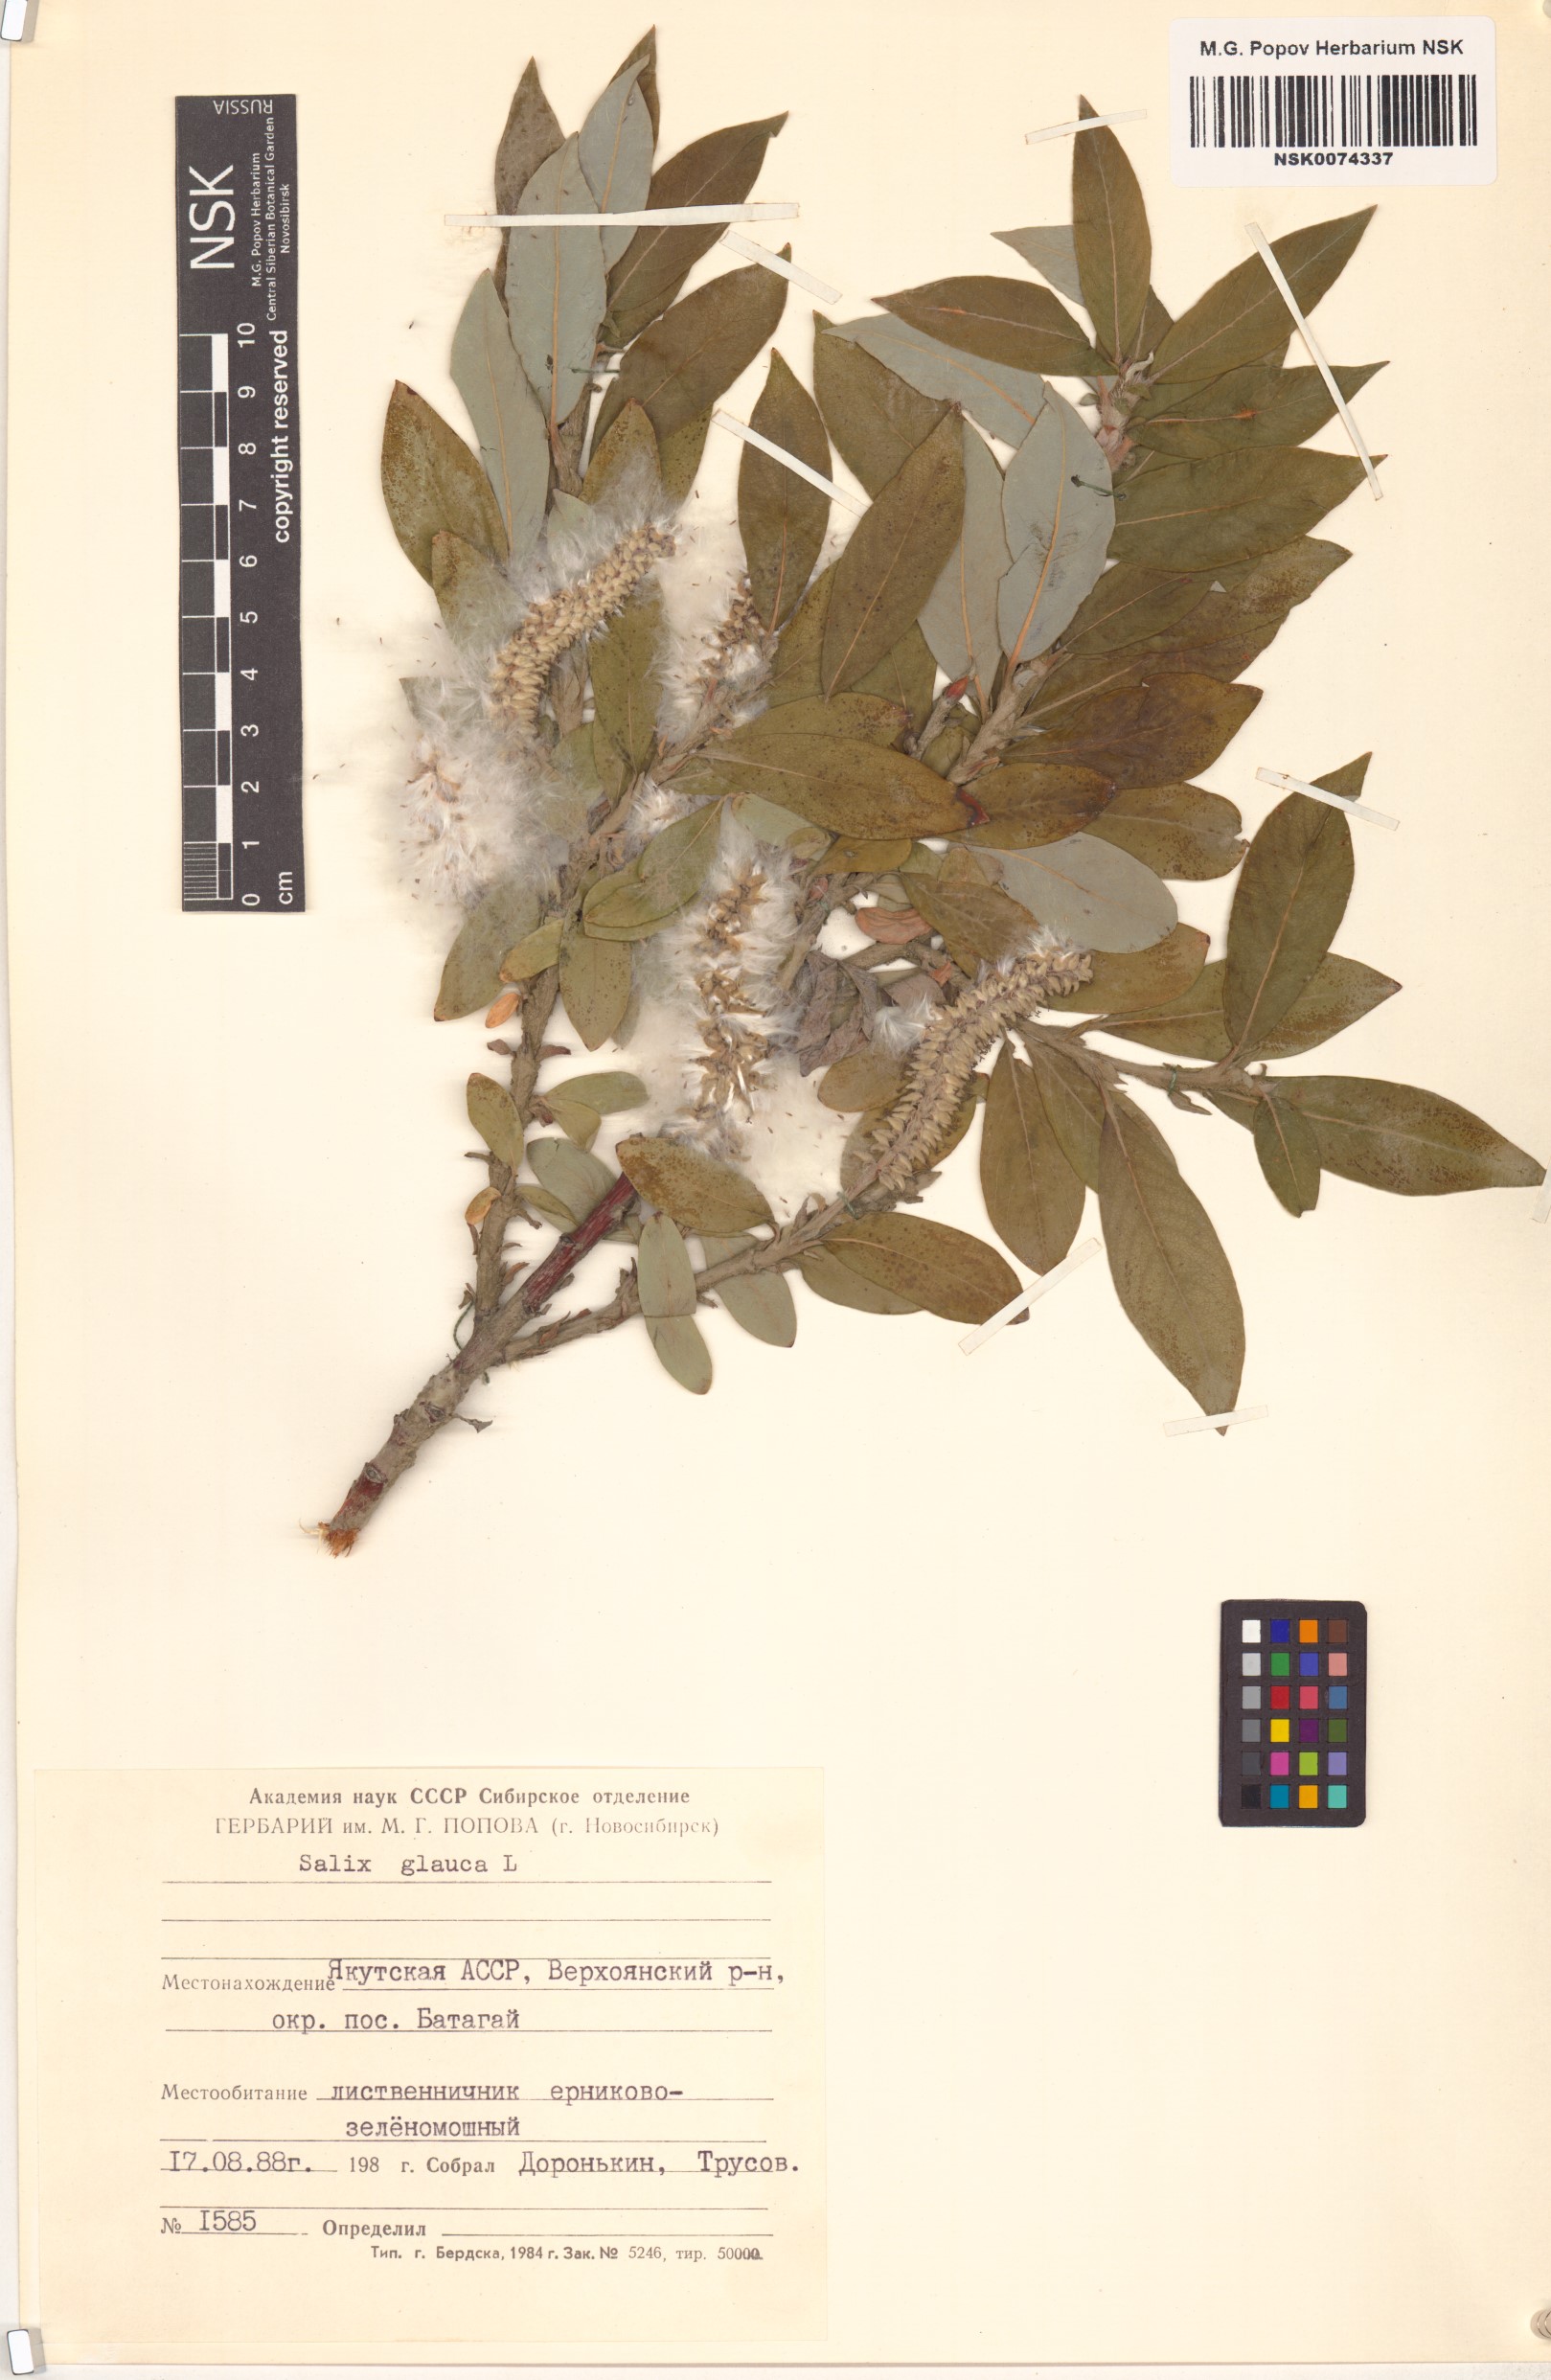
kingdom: Plantae
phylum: Tracheophyta
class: Magnoliopsida
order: Malpighiales
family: Salicaceae
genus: Salix
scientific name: Salix glauca
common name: Glaucous willow
